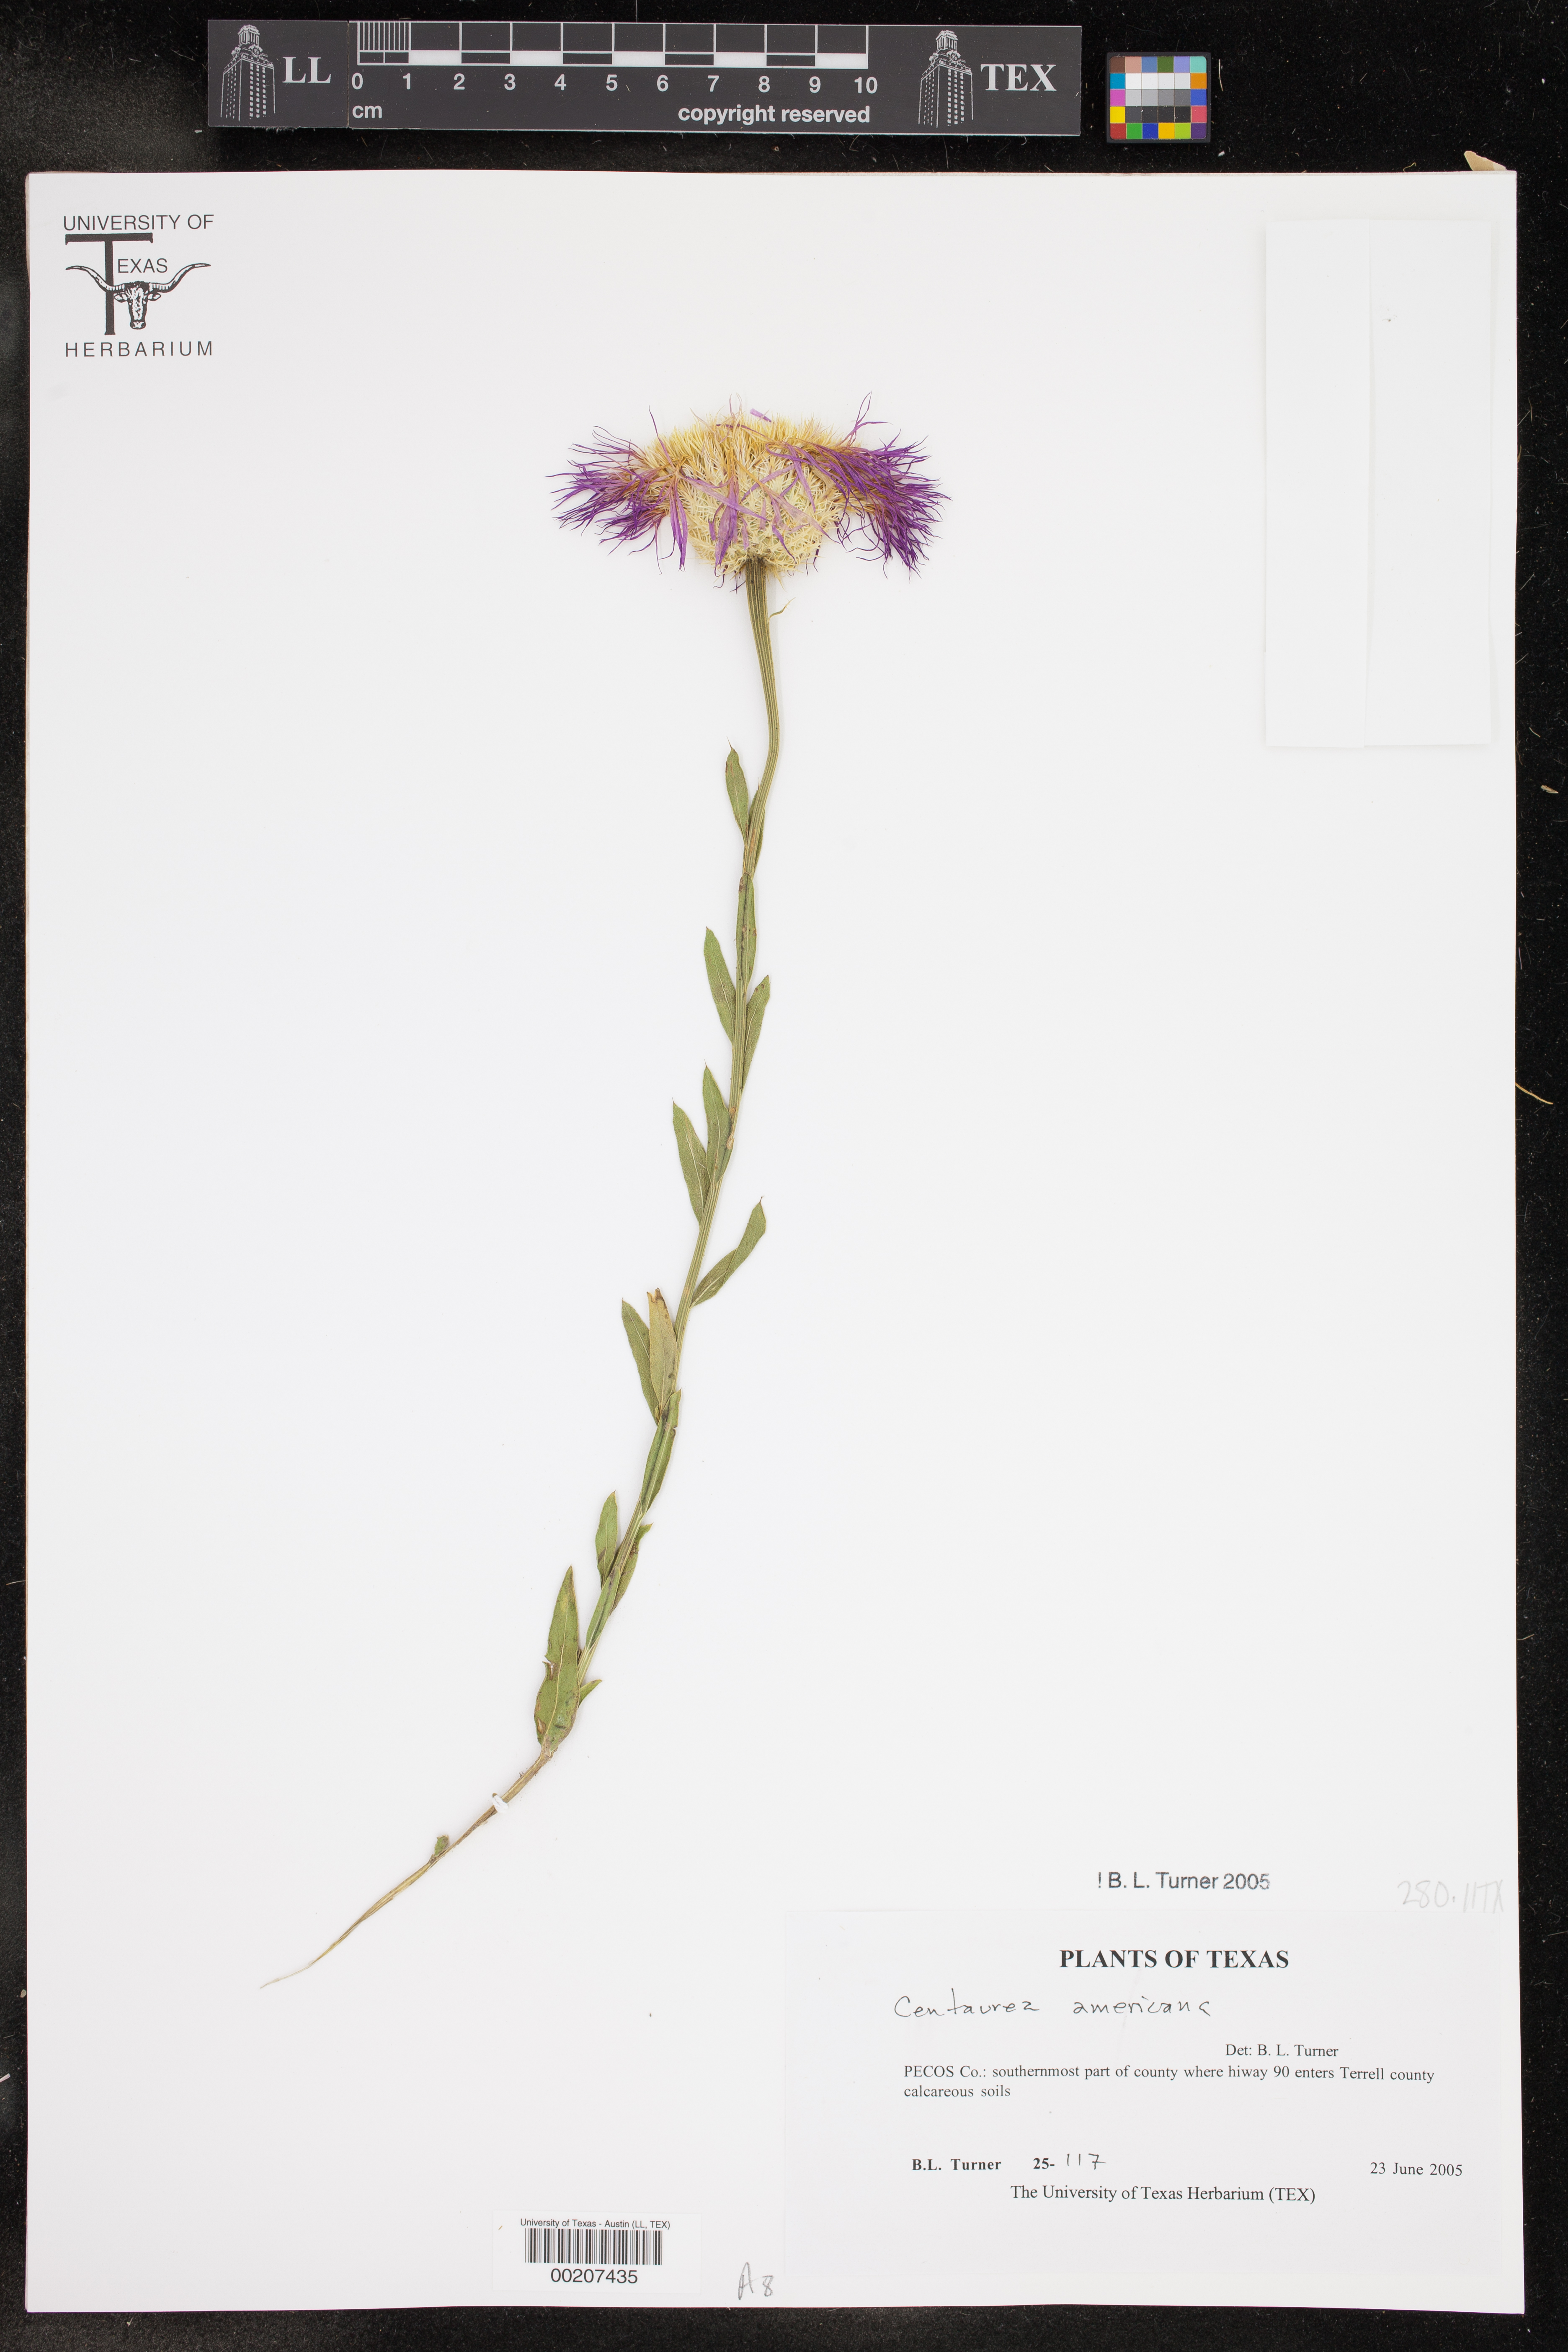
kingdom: Plantae
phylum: Tracheophyta
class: Magnoliopsida
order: Asterales
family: Asteraceae
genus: Plectocephalus
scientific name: Plectocephalus americanus
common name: American basket-flower
